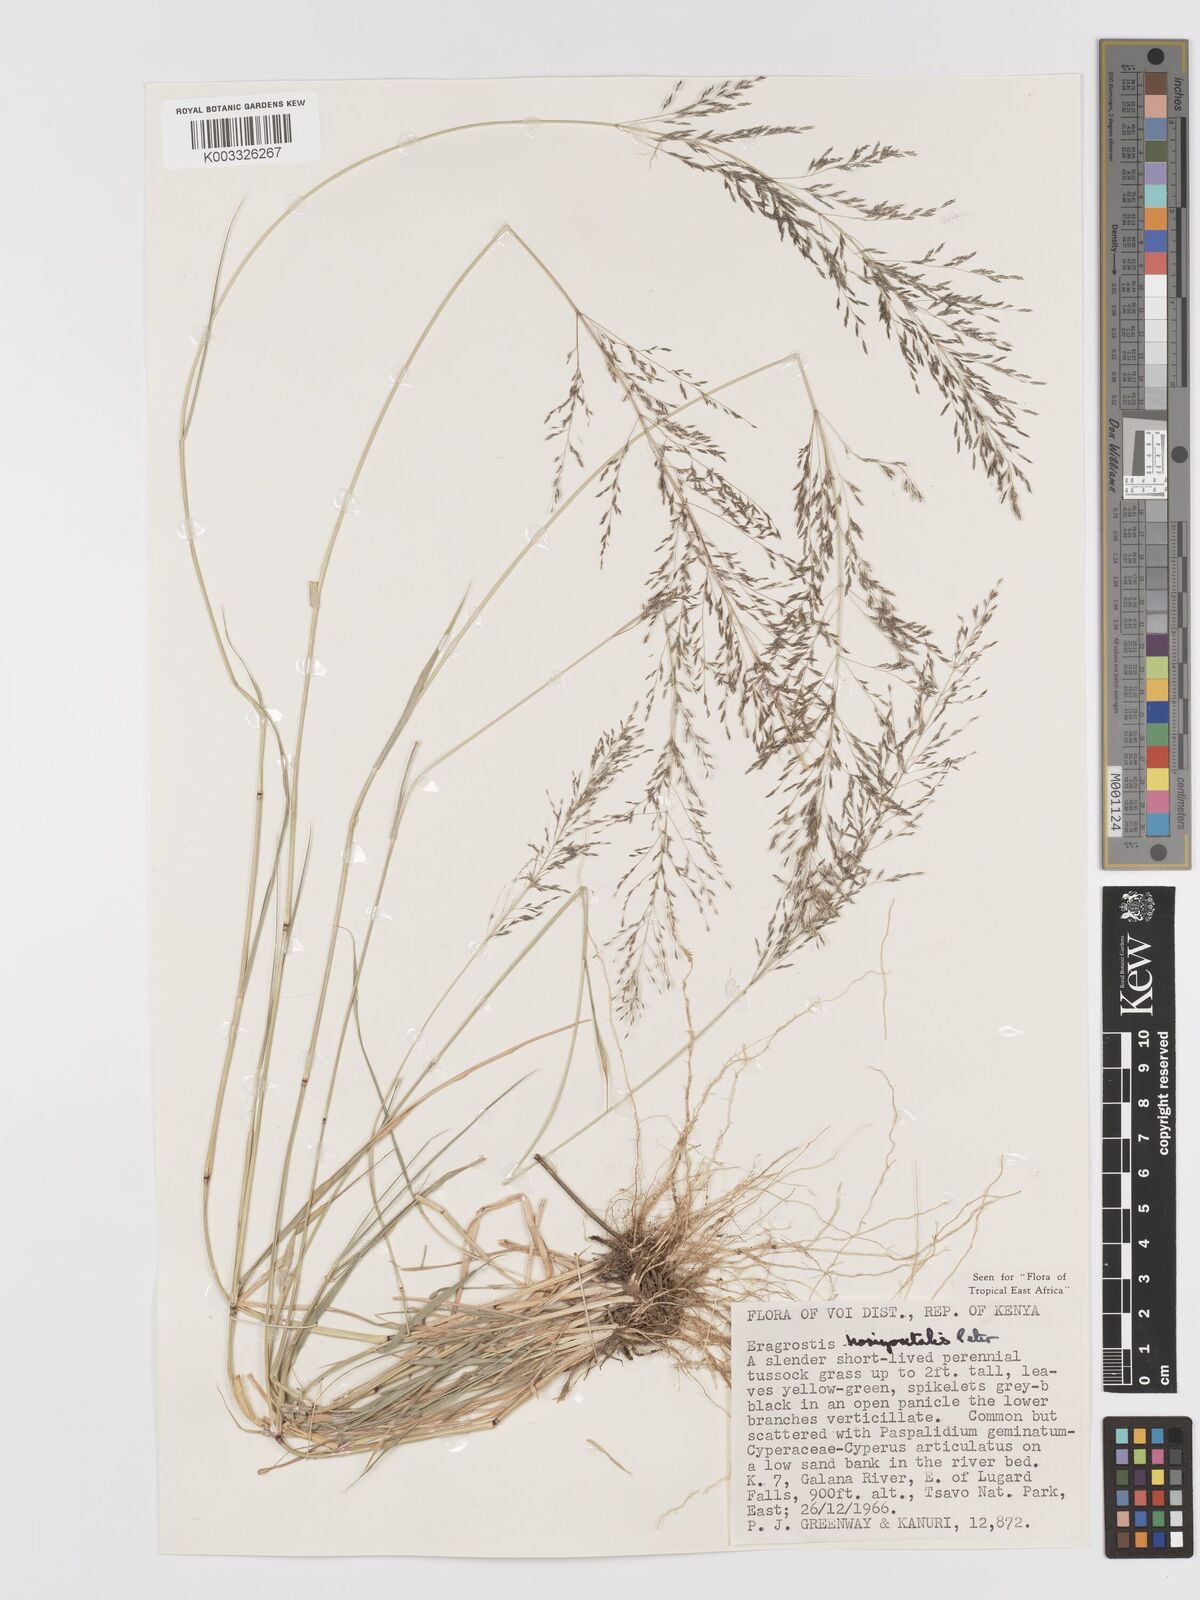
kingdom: Plantae
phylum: Tracheophyta
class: Liliopsida
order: Poales
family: Poaceae
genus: Eragrostis
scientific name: Eragrostis cylindriflora
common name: Cylinderflower lovegrass
